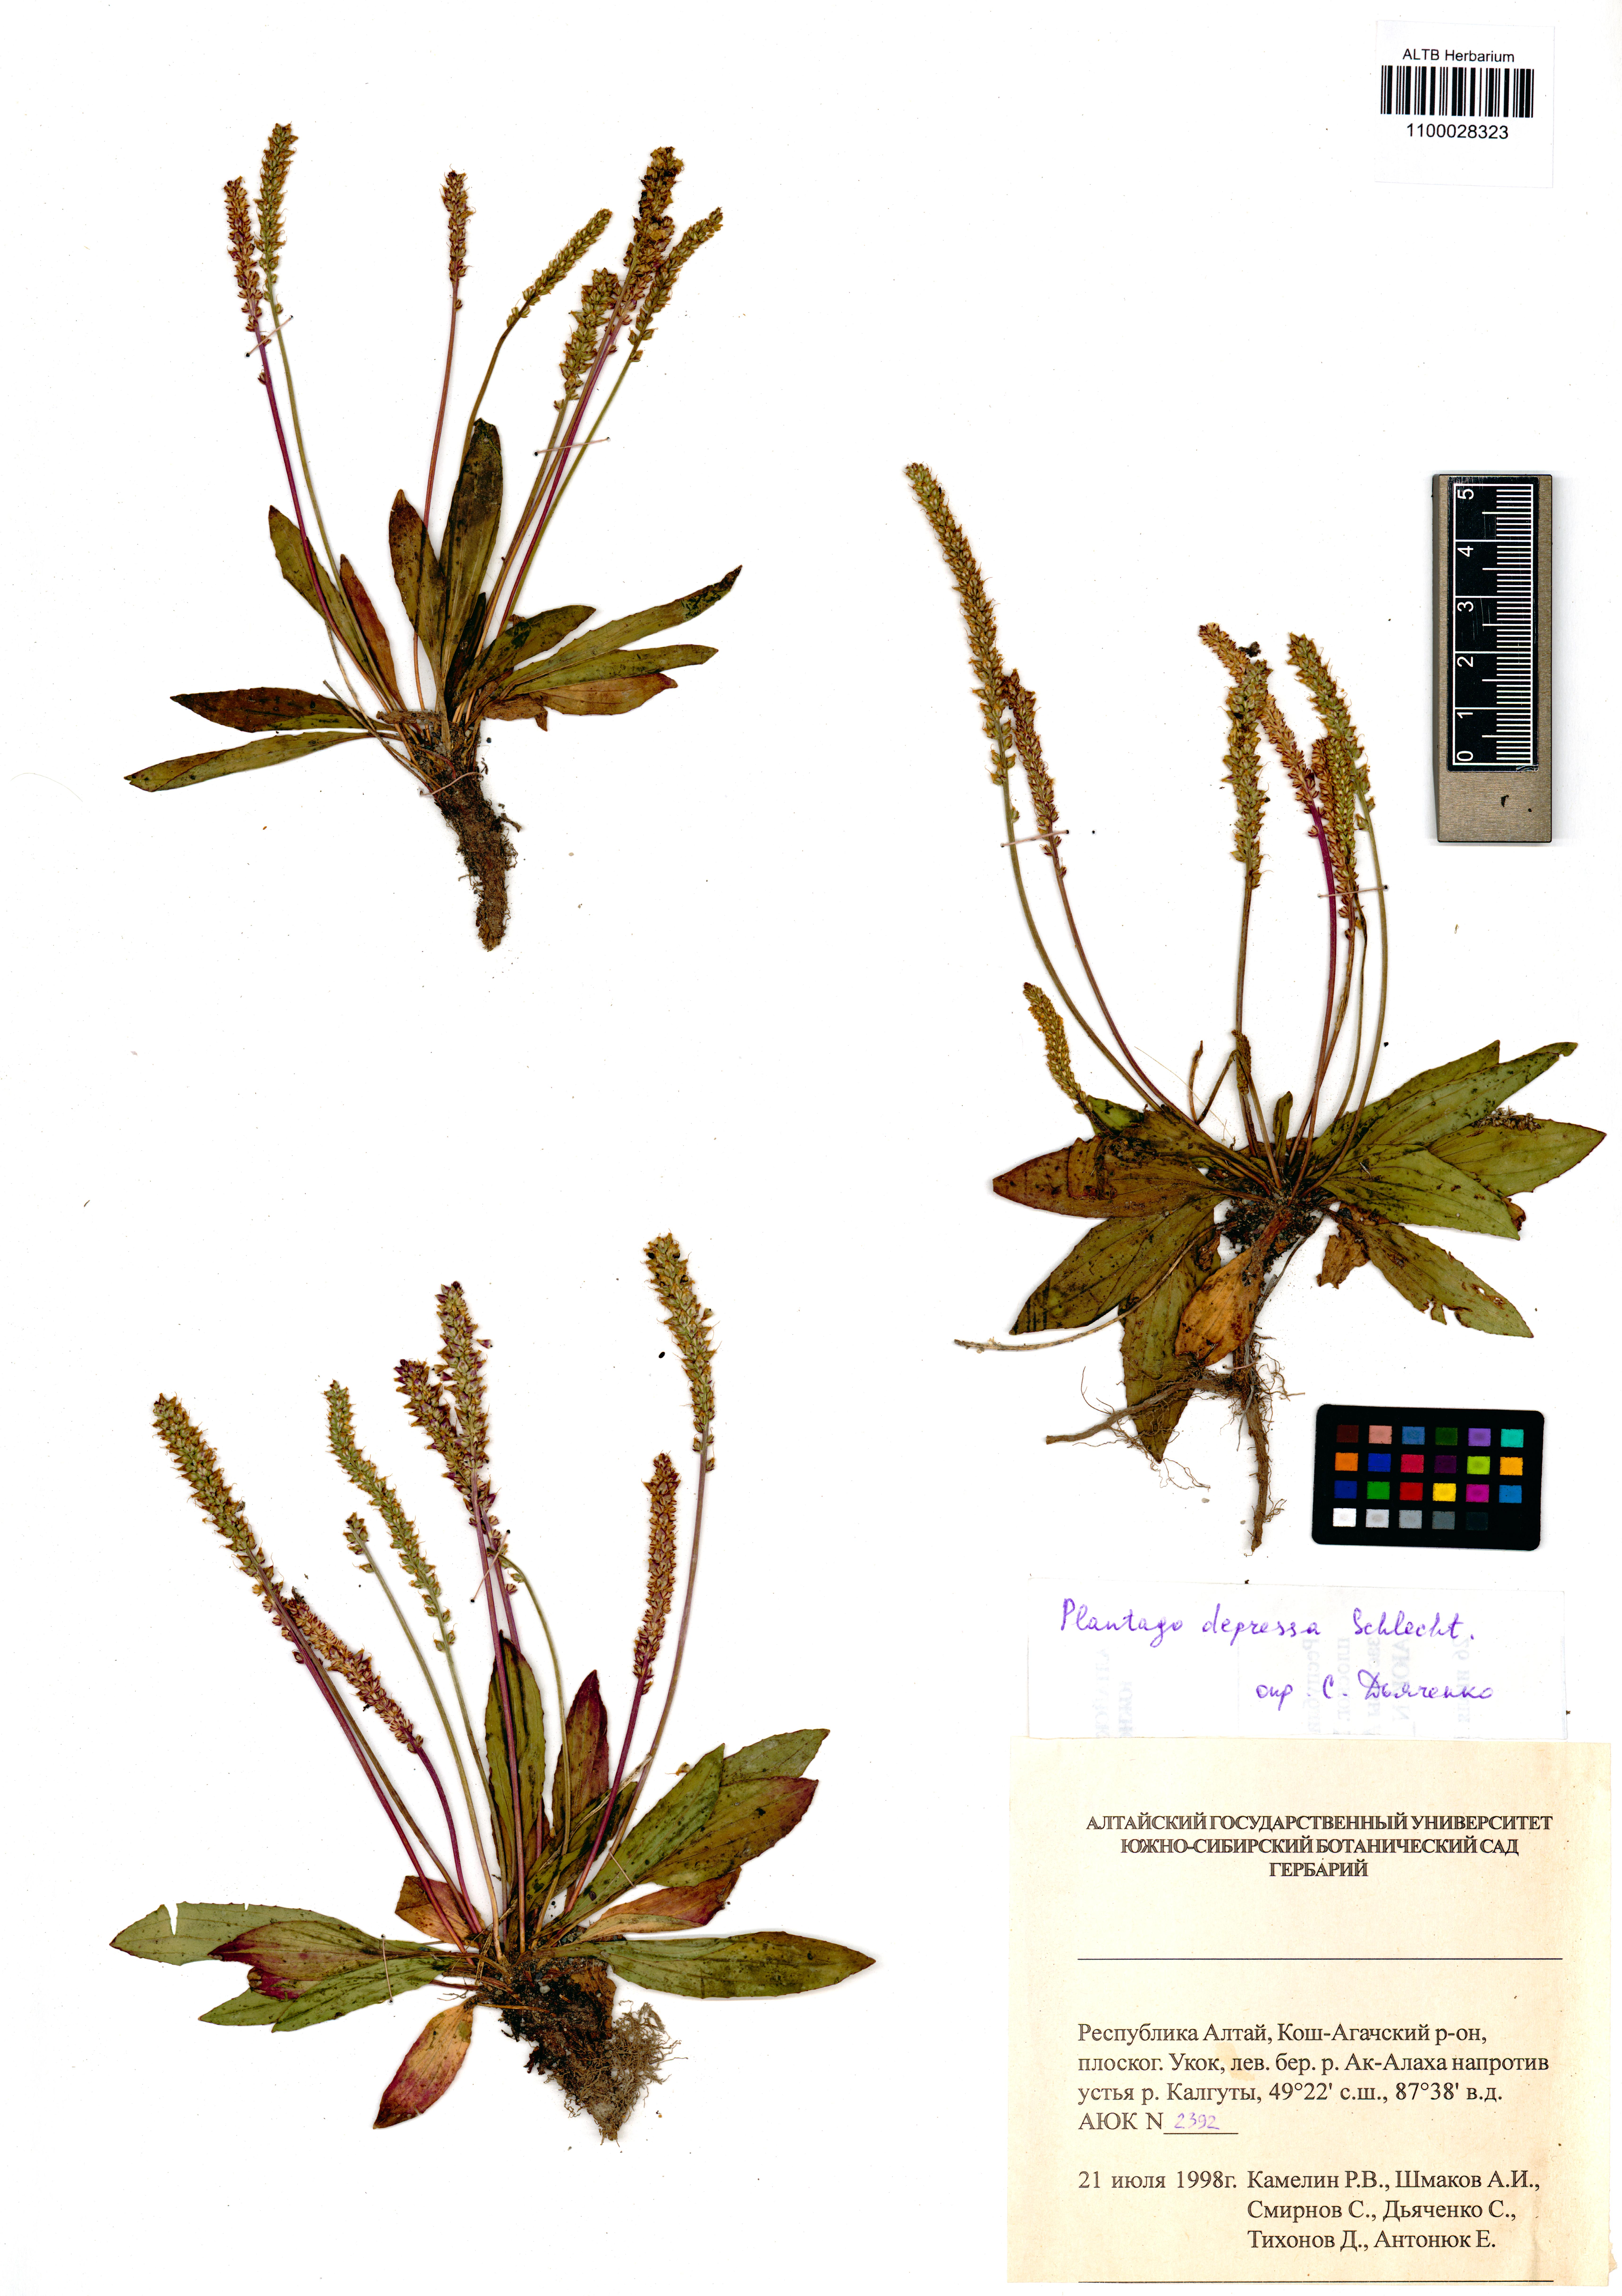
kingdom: Plantae
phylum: Tracheophyta
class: Magnoliopsida
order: Lamiales
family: Plantaginaceae
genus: Plantago
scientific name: Plantago depressa
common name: Depressed plantain
